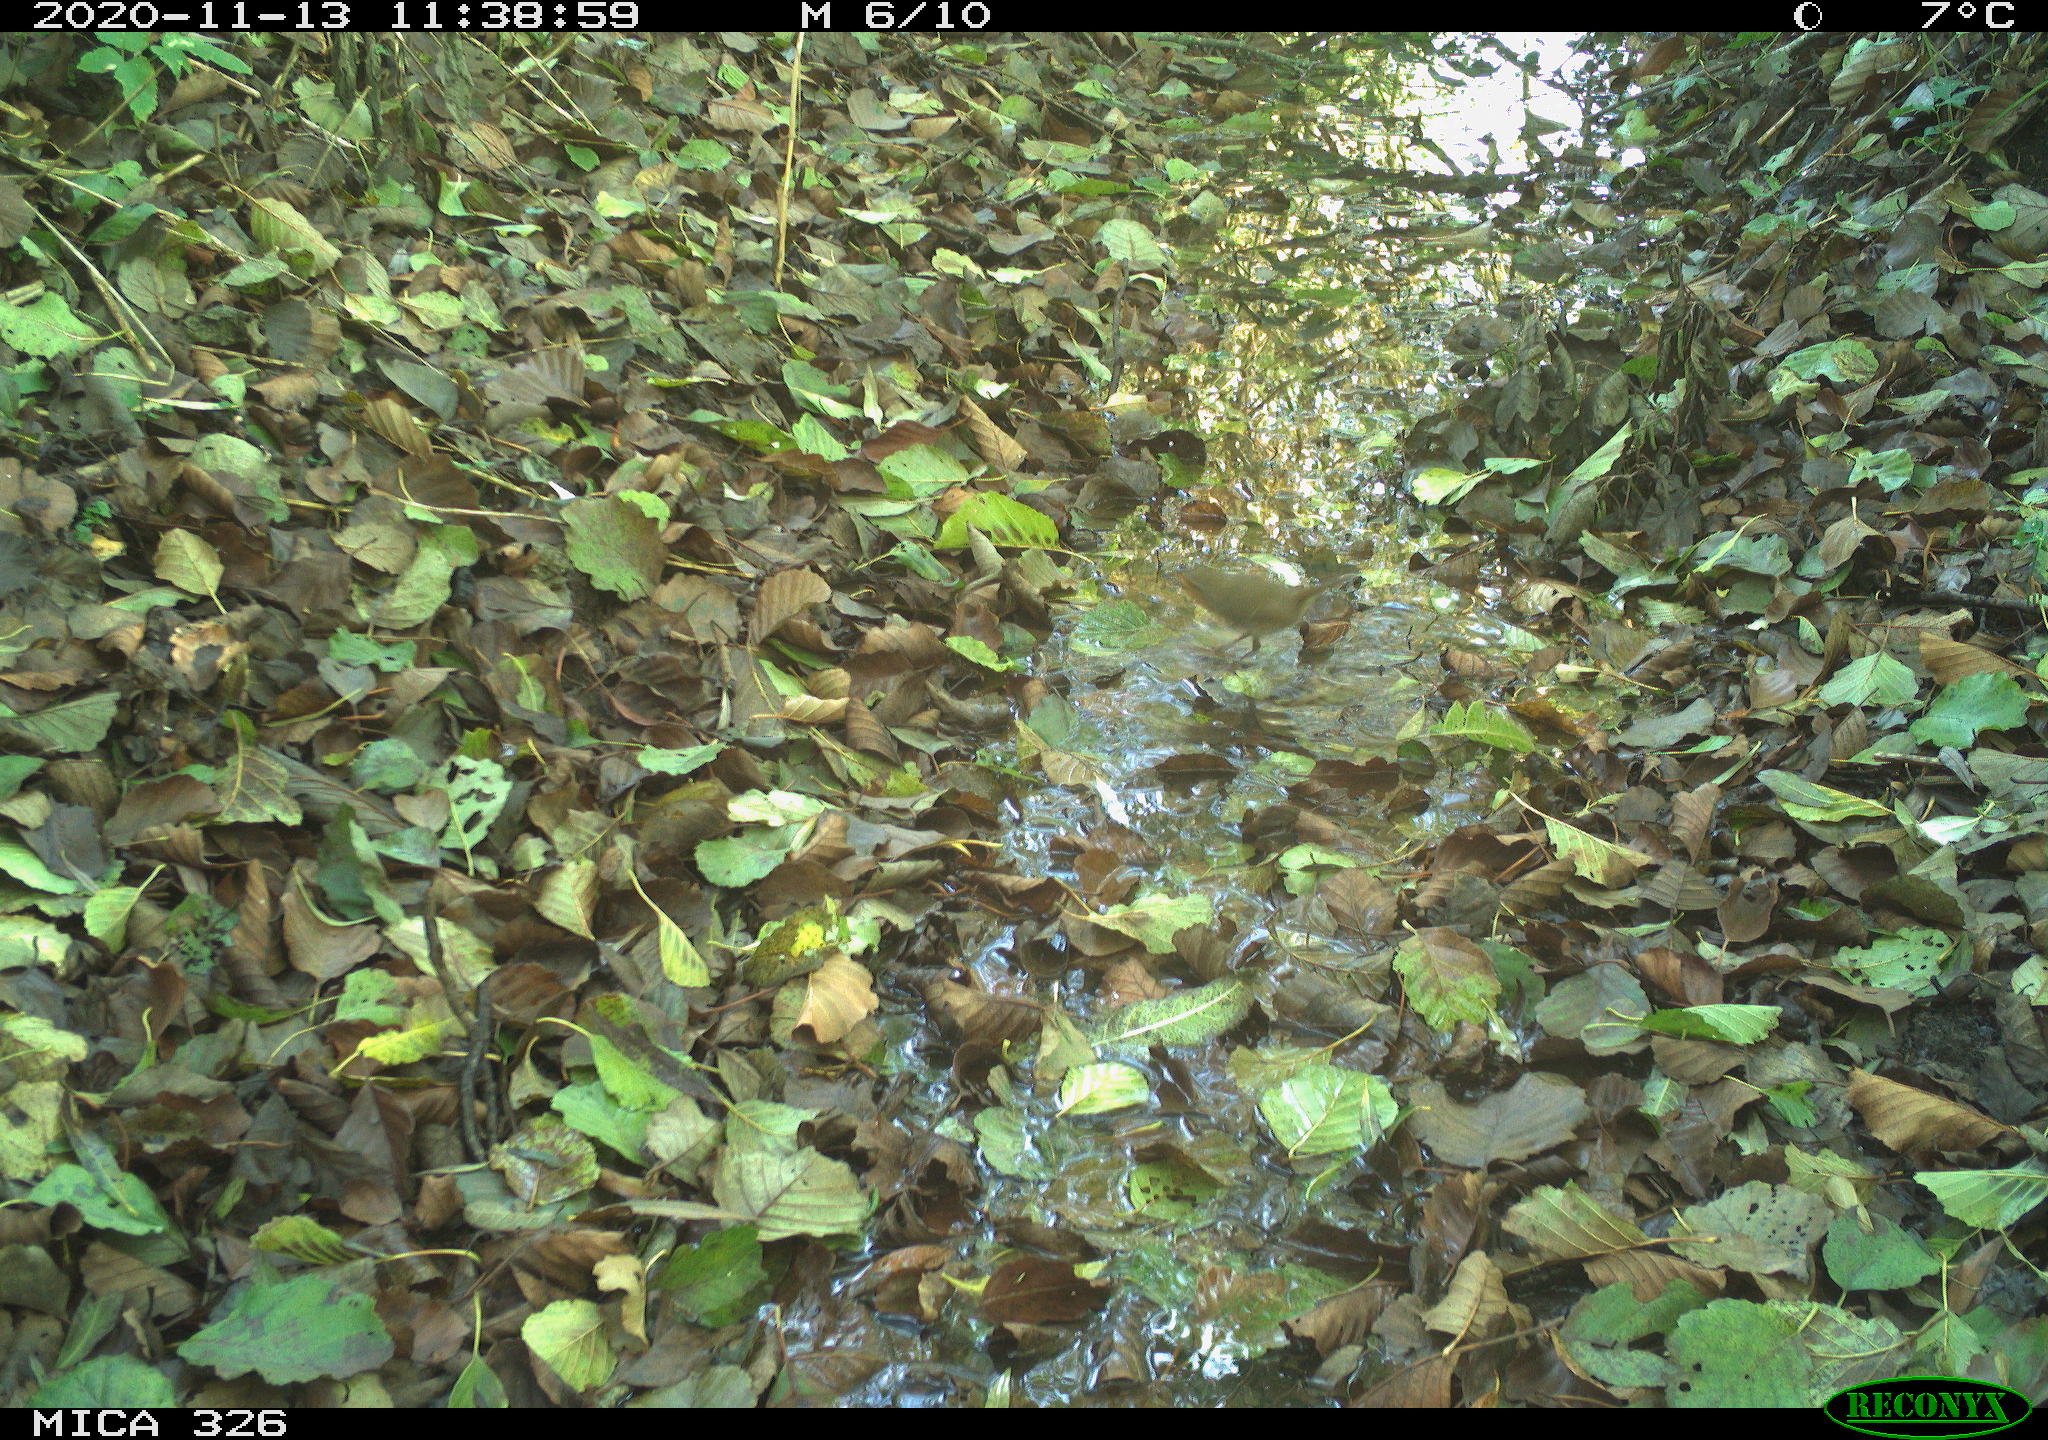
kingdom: Animalia
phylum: Chordata
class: Aves
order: Passeriformes
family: Muscicapidae
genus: Erithacus
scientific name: Erithacus rubecula
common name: European robin
